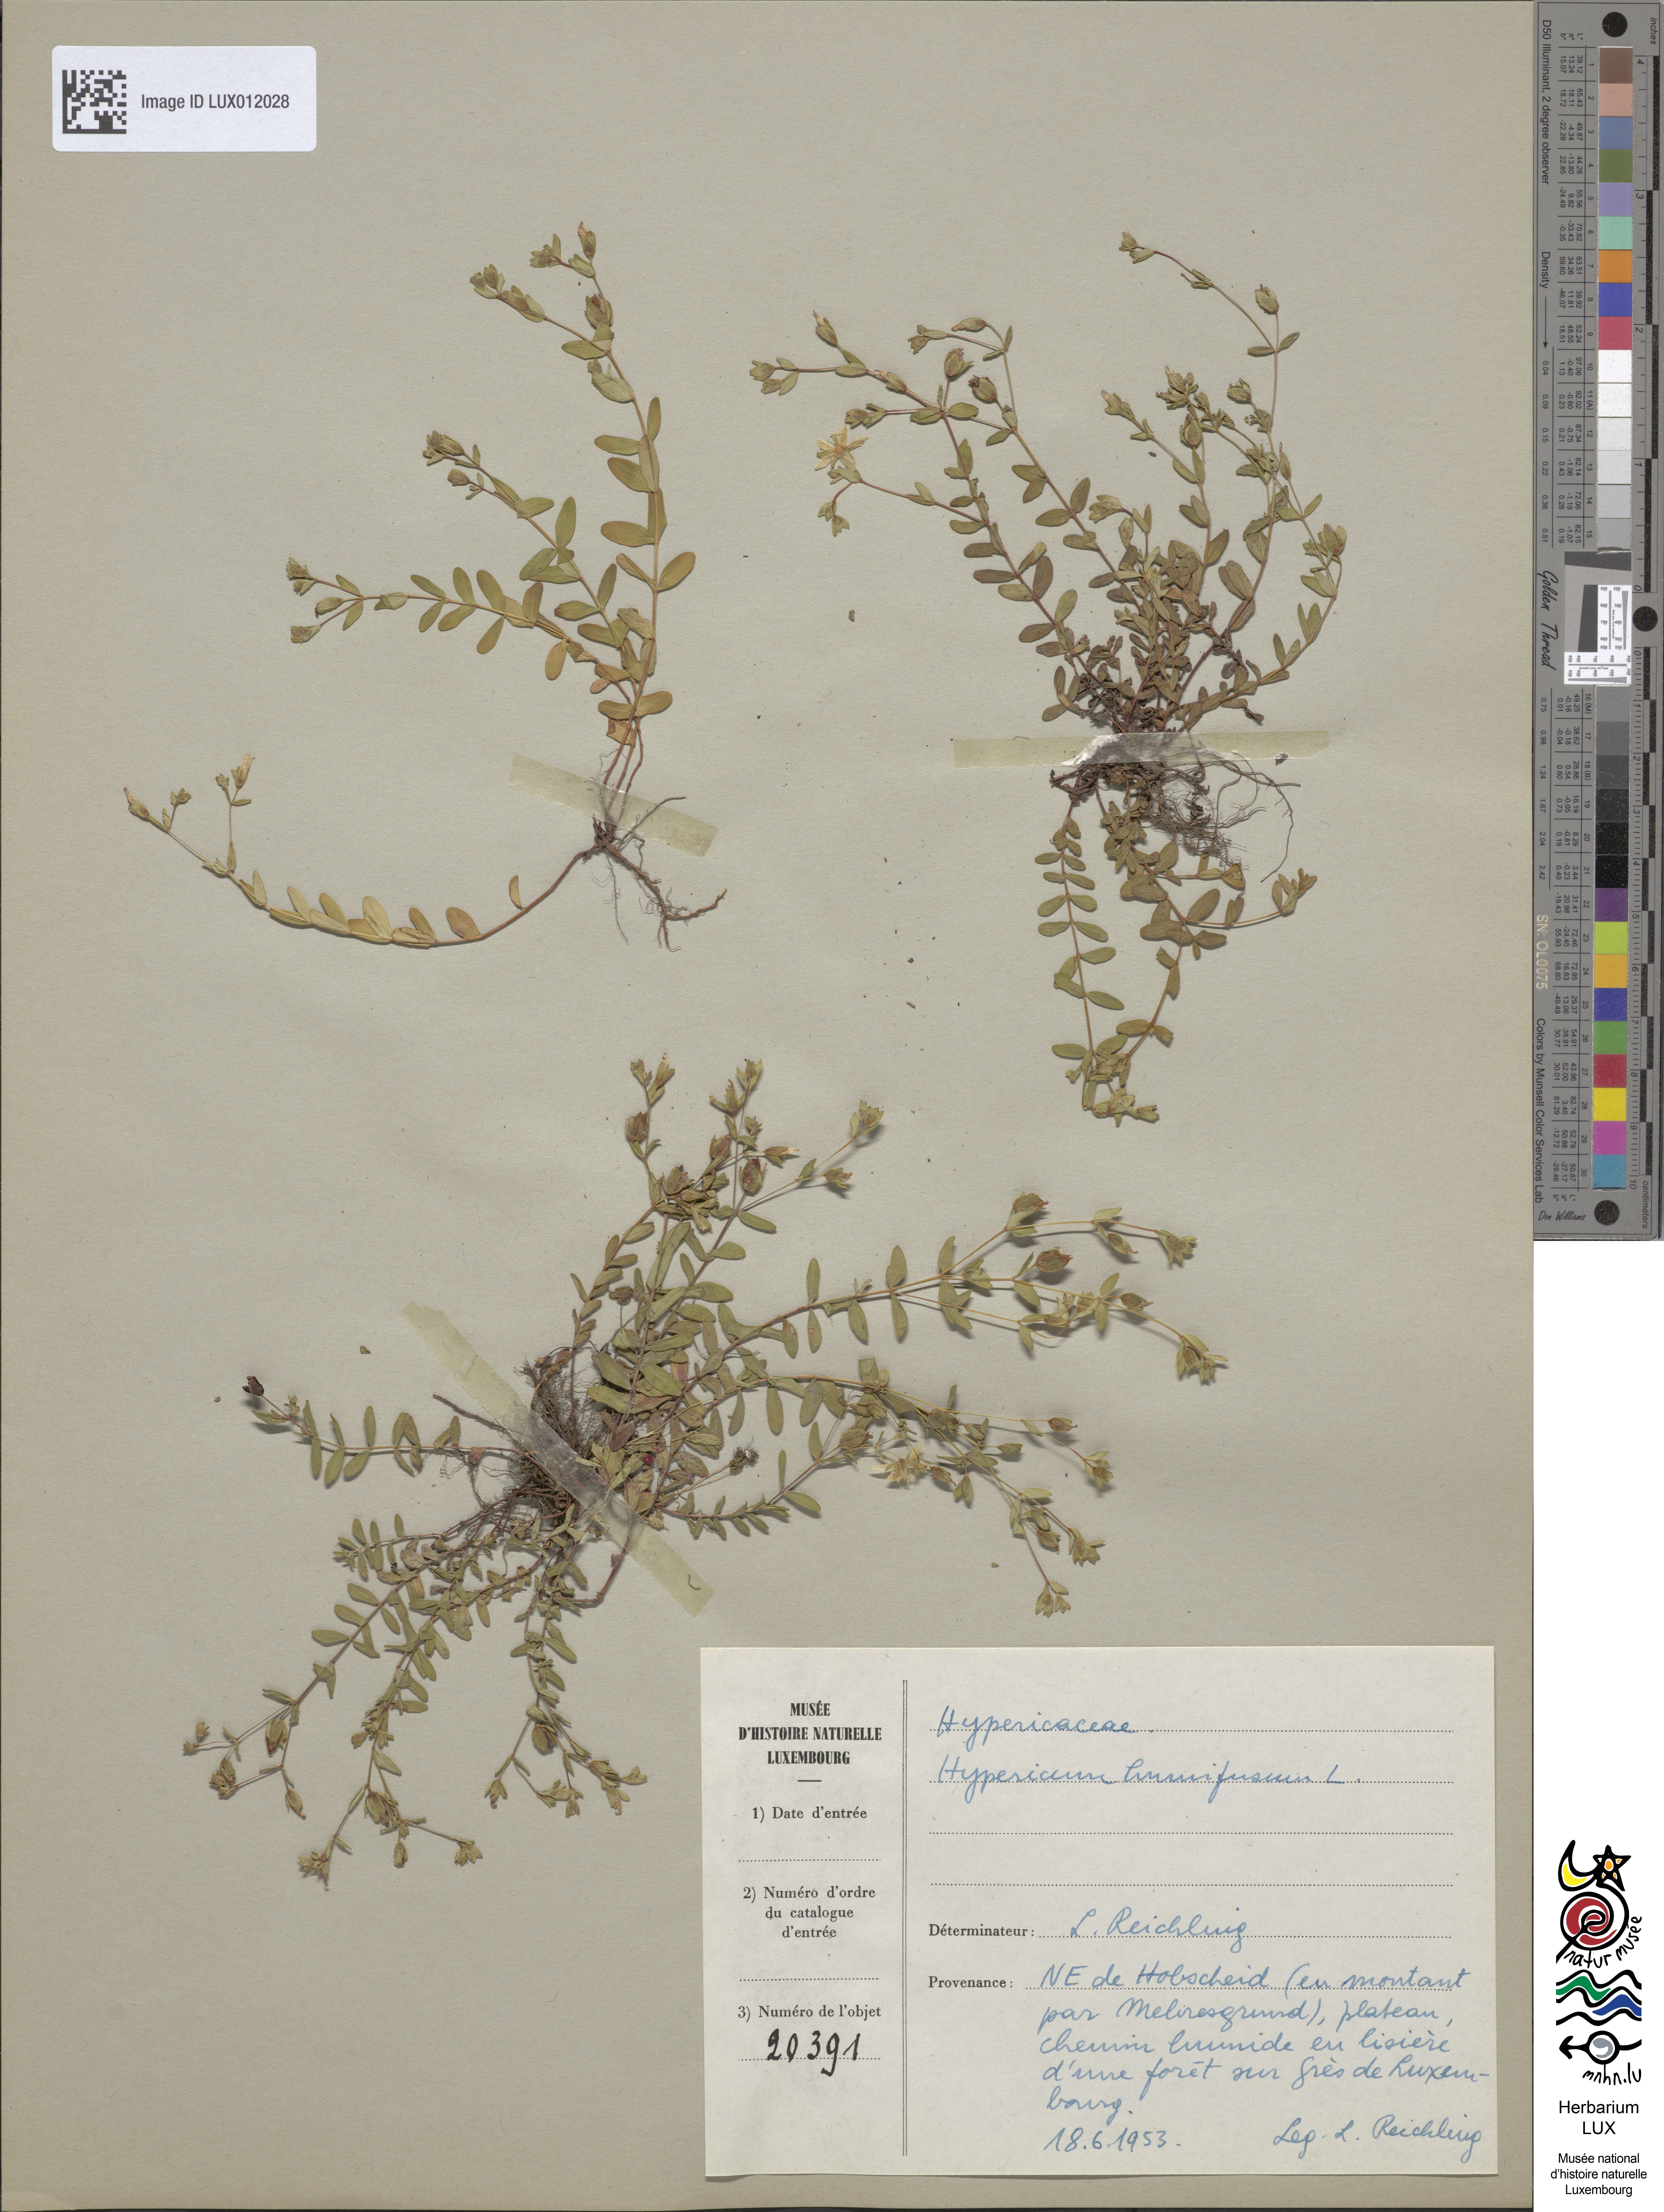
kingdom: Plantae
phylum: Tracheophyta
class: Magnoliopsida
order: Malpighiales
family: Hypericaceae
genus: Hypericum
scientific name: Hypericum humifusum
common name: Trailing st. john's-wort
